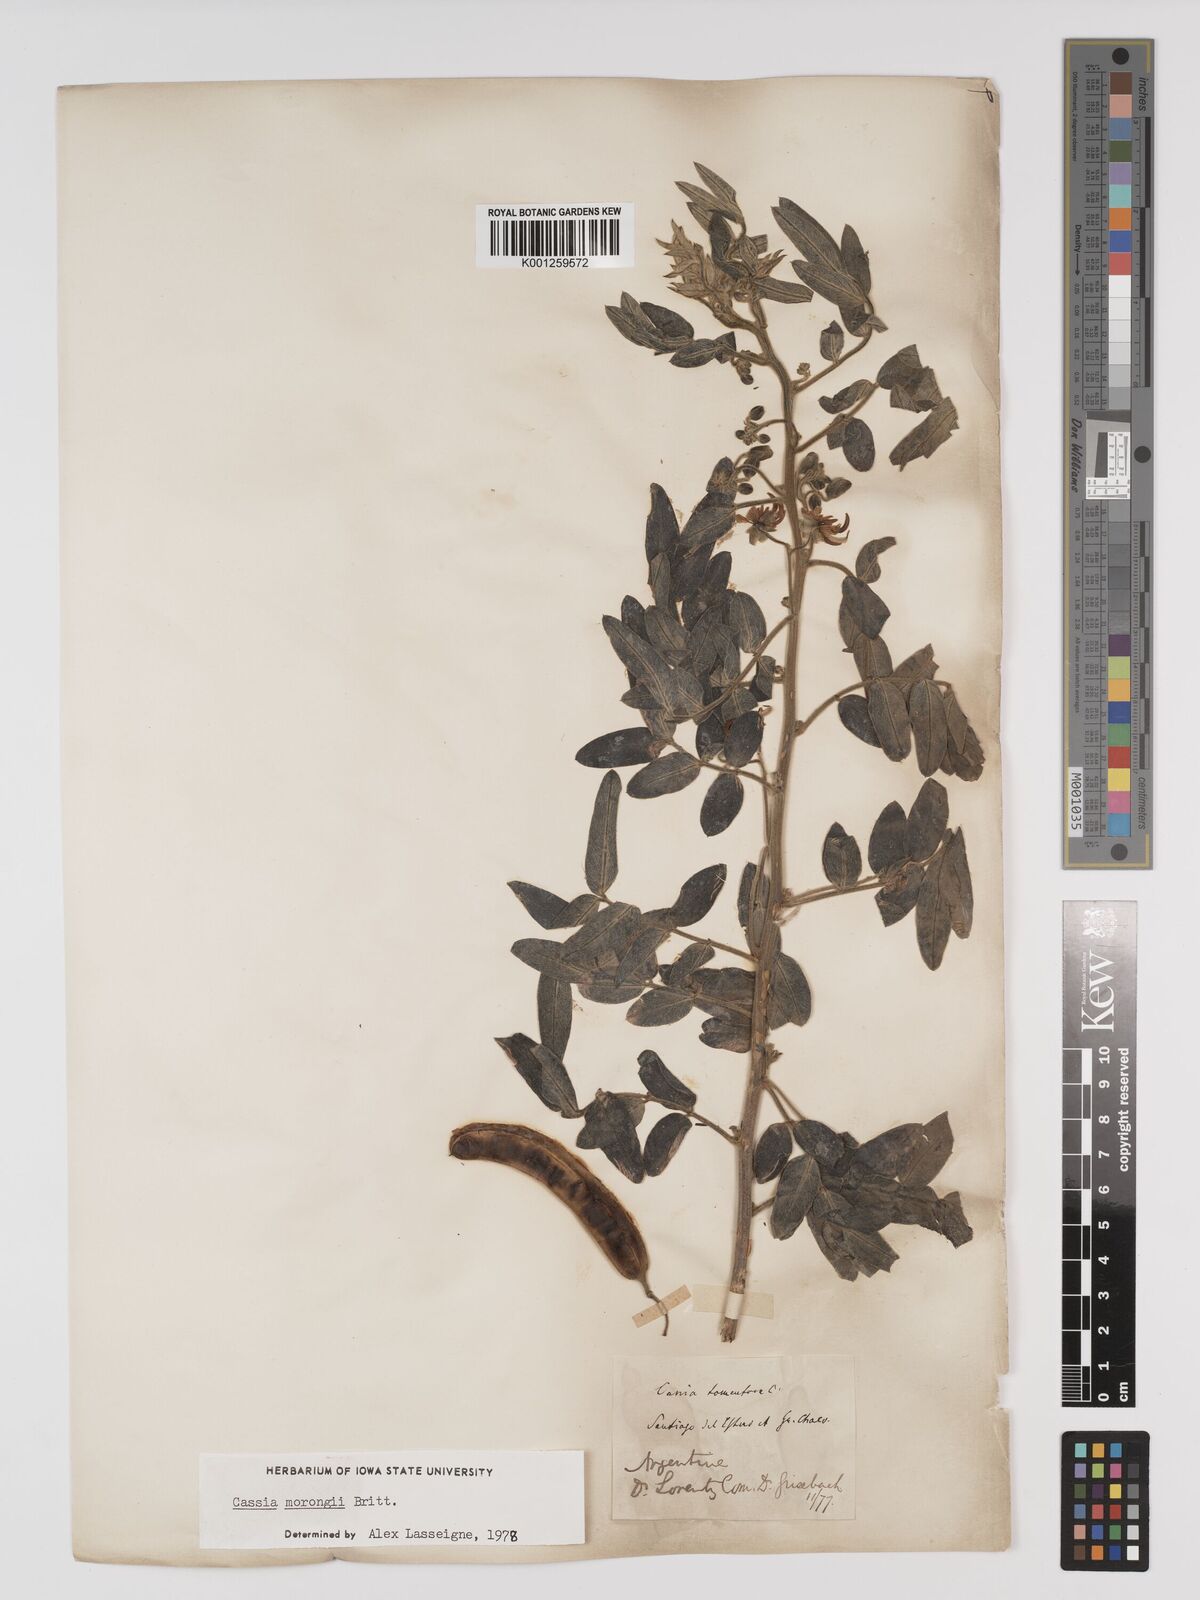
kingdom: Plantae
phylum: Tracheophyta
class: Magnoliopsida
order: Fabales
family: Fabaceae
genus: Senna
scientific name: Senna morongii
